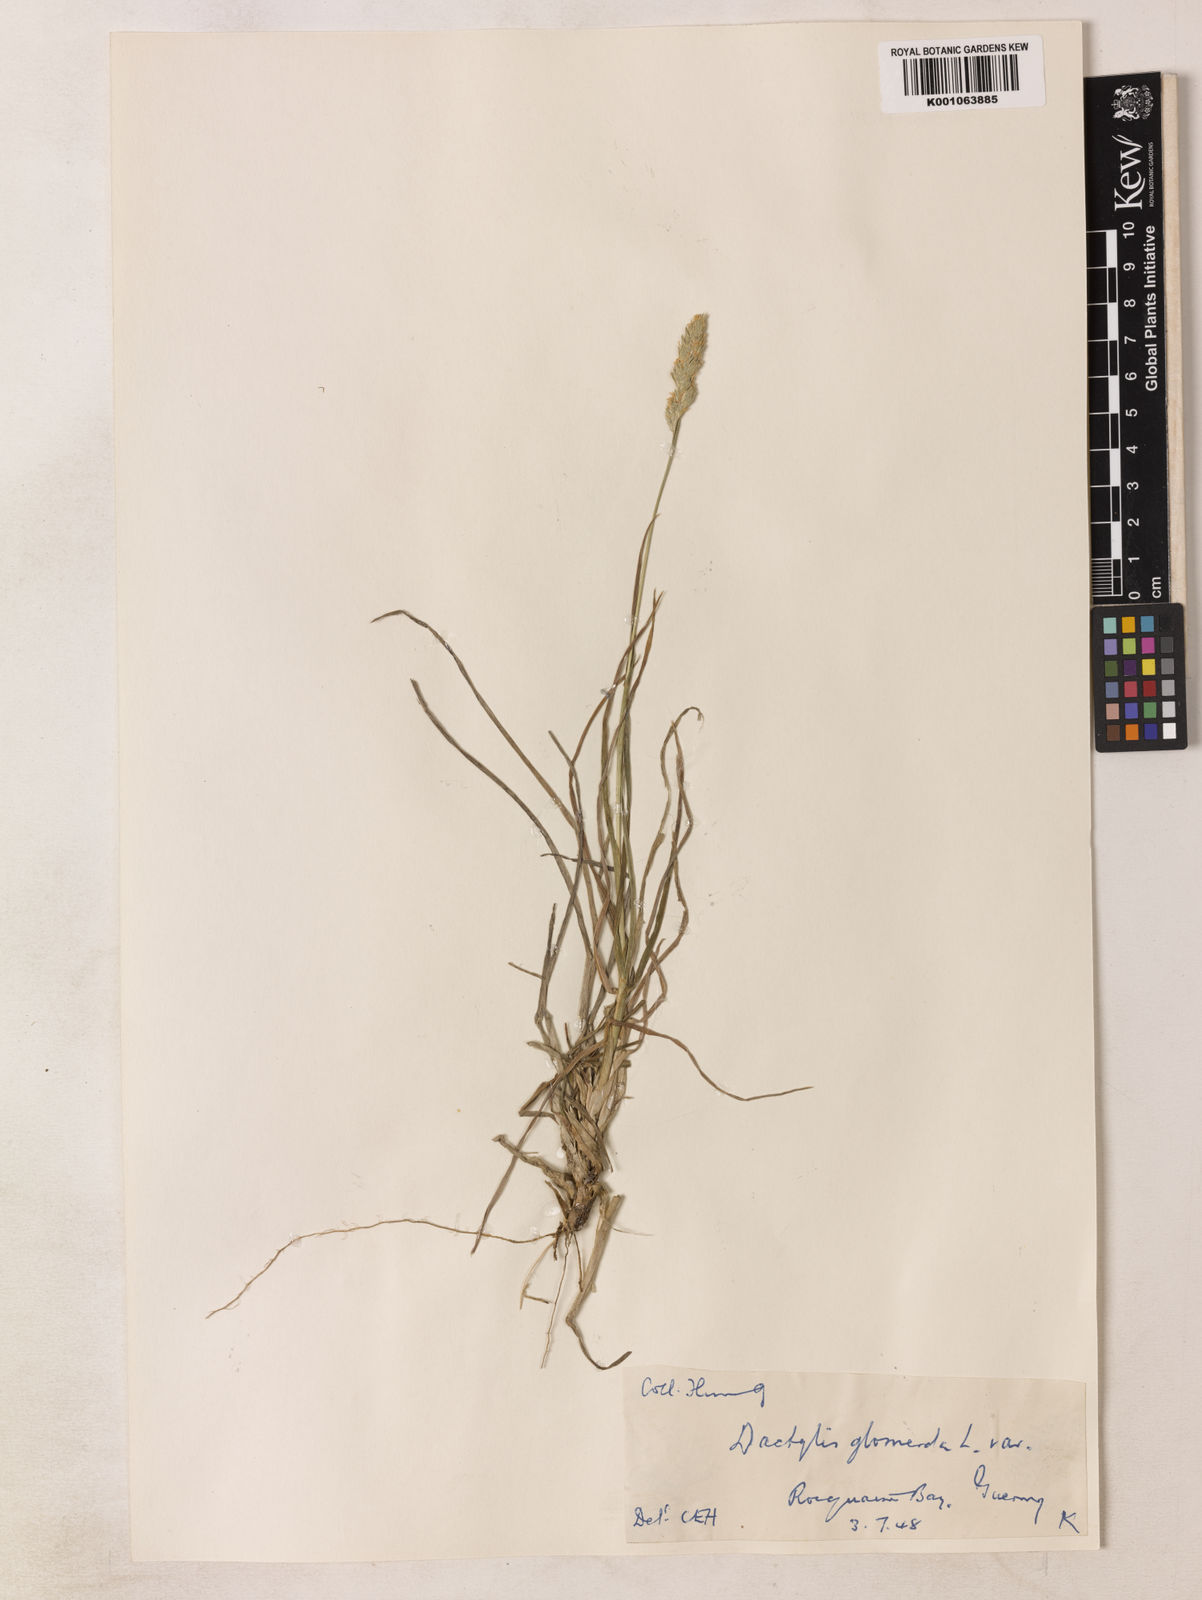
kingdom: Plantae
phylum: Tracheophyta
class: Liliopsida
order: Poales
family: Poaceae
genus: Dactylis
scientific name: Dactylis glomerata
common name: Orchardgrass
